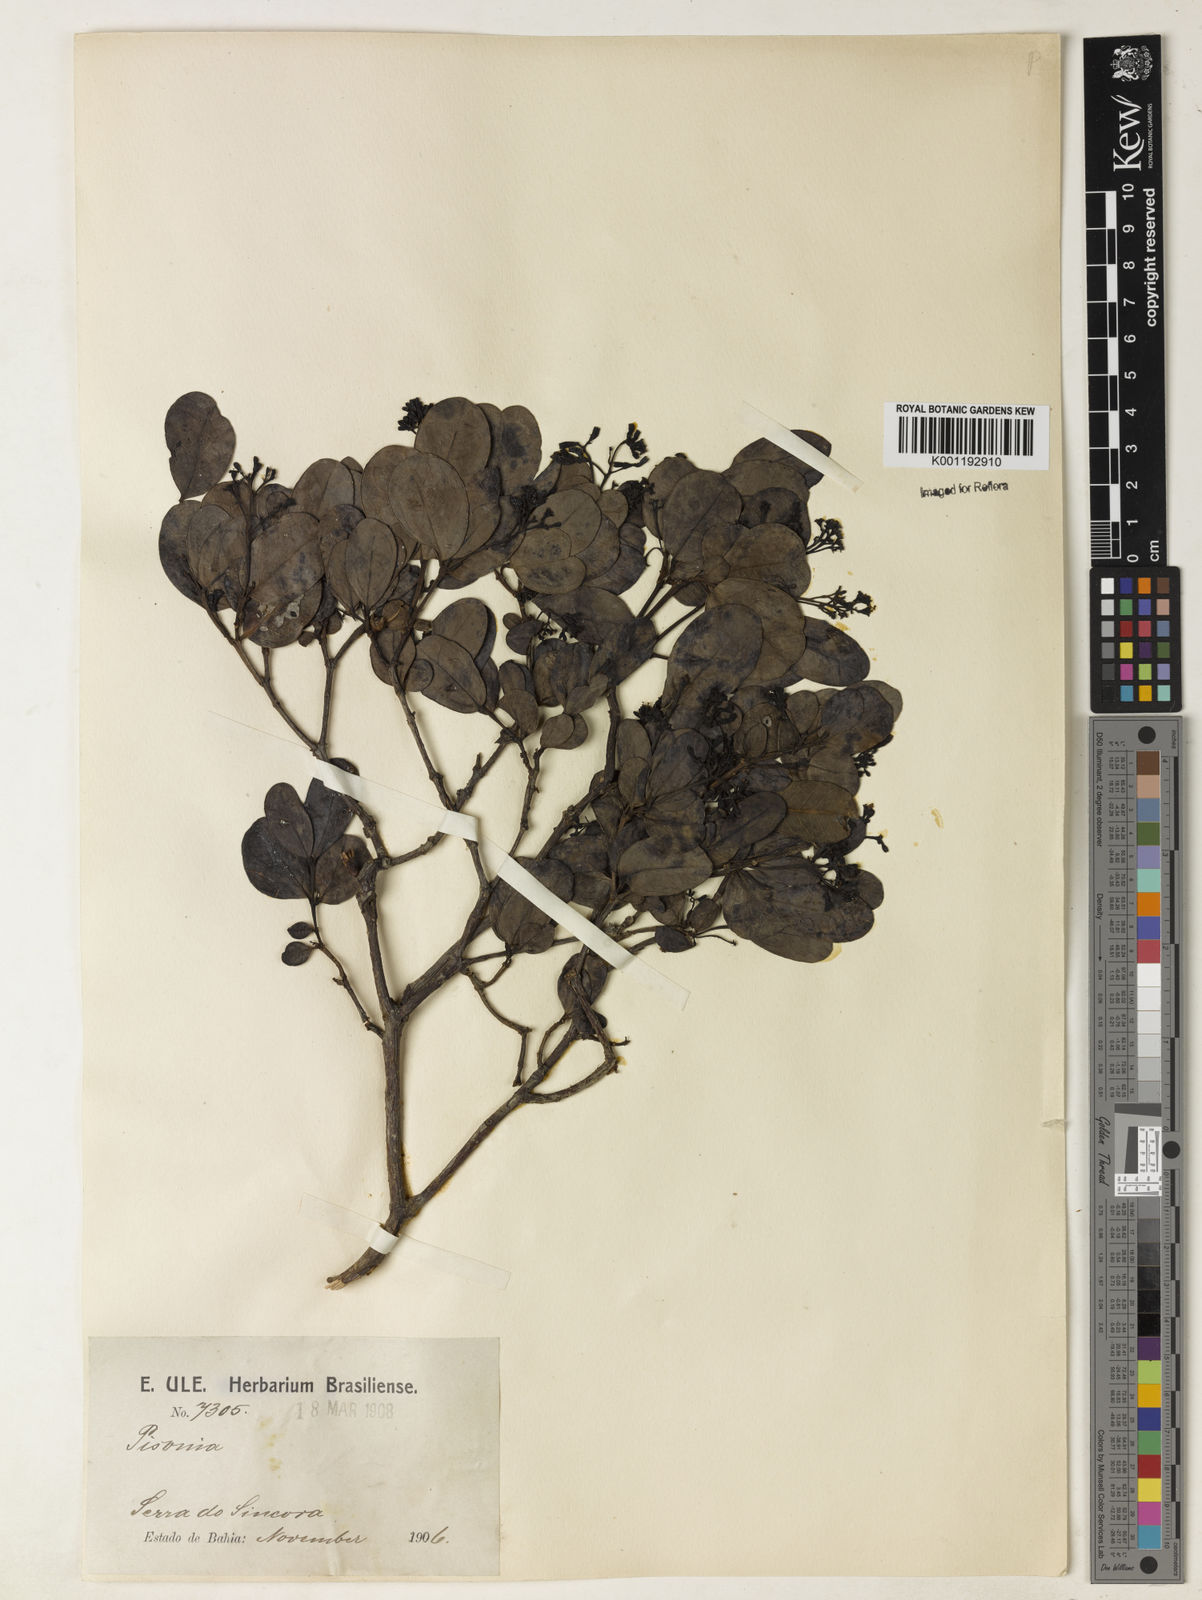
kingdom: Plantae
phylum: Tracheophyta
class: Magnoliopsida
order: Caryophyllales
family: Nyctaginaceae
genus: Guapira
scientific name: Guapira obtusata
